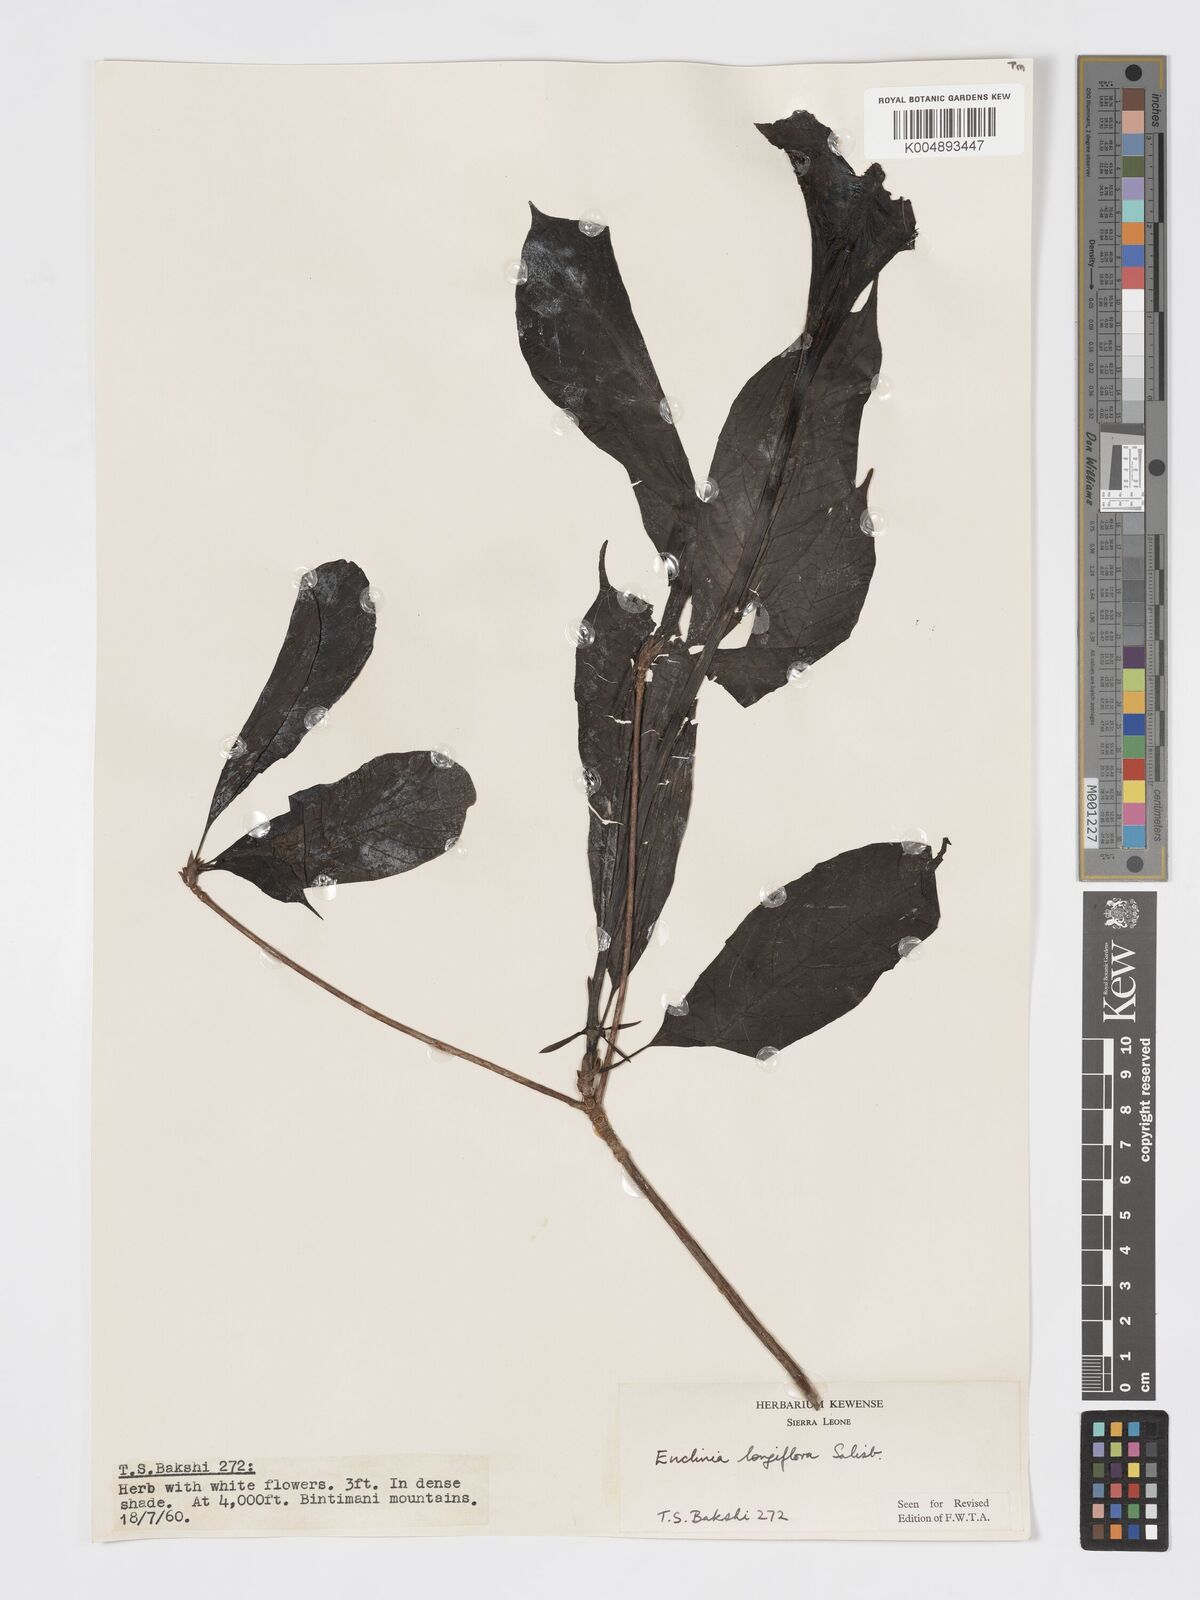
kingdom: Plantae
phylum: Tracheophyta
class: Magnoliopsida
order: Gentianales
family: Rubiaceae
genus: Euclinia
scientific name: Euclinia longiflora
